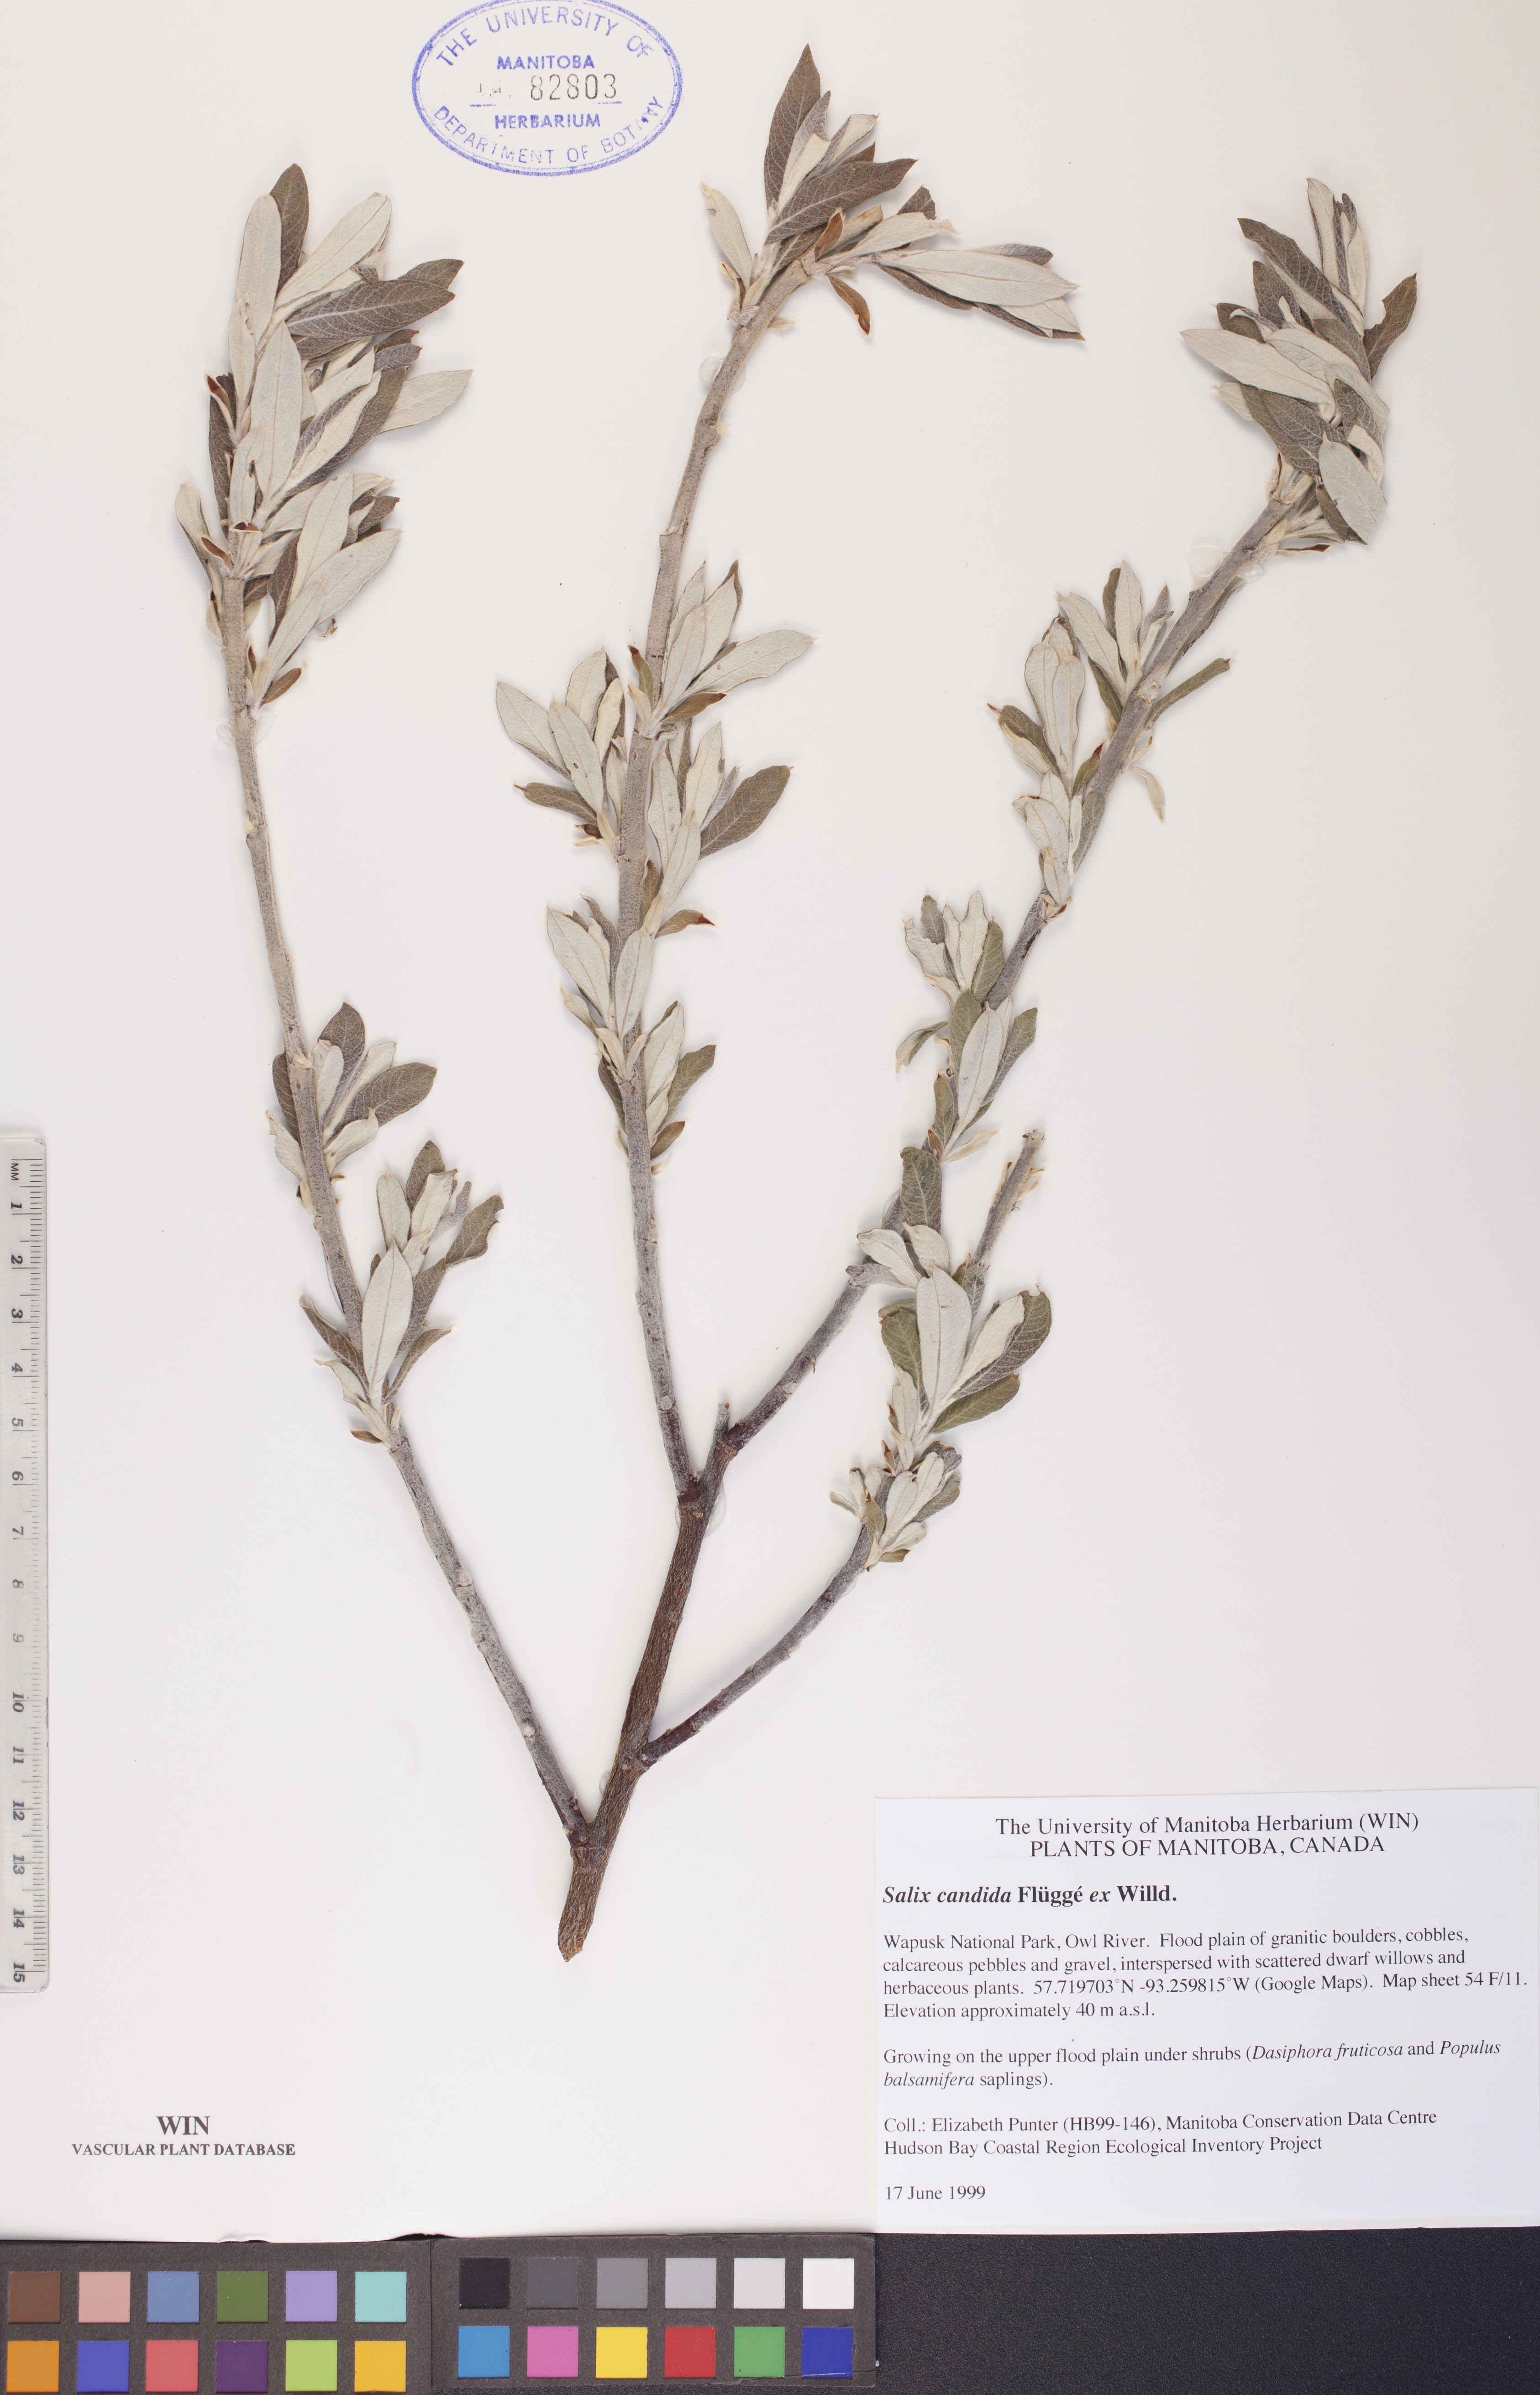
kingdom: Plantae
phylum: Tracheophyta
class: Magnoliopsida
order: Malpighiales
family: Salicaceae
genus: Salix
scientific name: Salix candida
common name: Hoary willow
